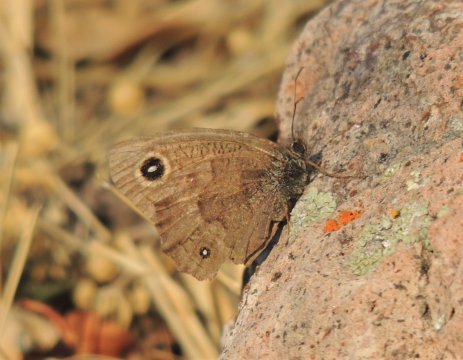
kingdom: Animalia
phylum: Arthropoda
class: Insecta
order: Lepidoptera
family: Nymphalidae
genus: Cercyonis
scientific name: Cercyonis pegala
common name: Common Wood-Nymph
